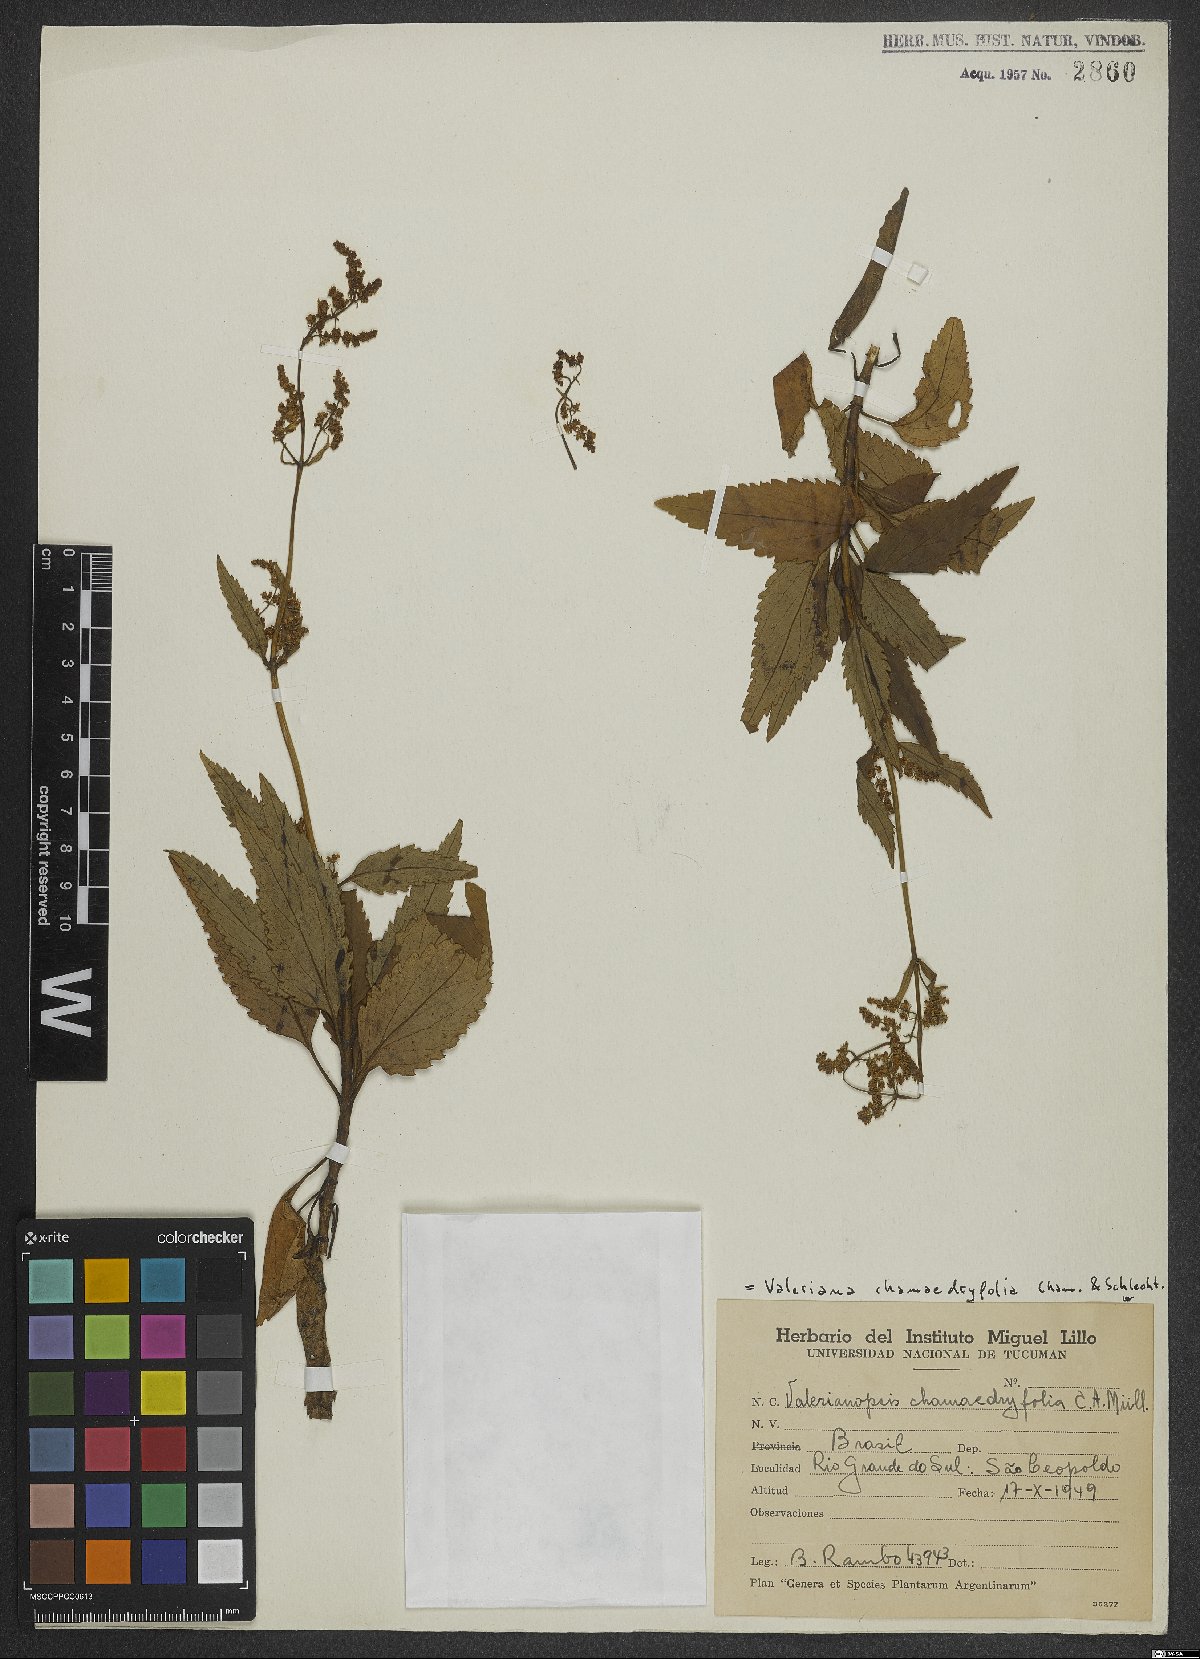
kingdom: Plantae
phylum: Tracheophyta
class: Magnoliopsida
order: Dipsacales
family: Caprifoliaceae
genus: Valeriana
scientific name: Valeriana chamaedryfolia
